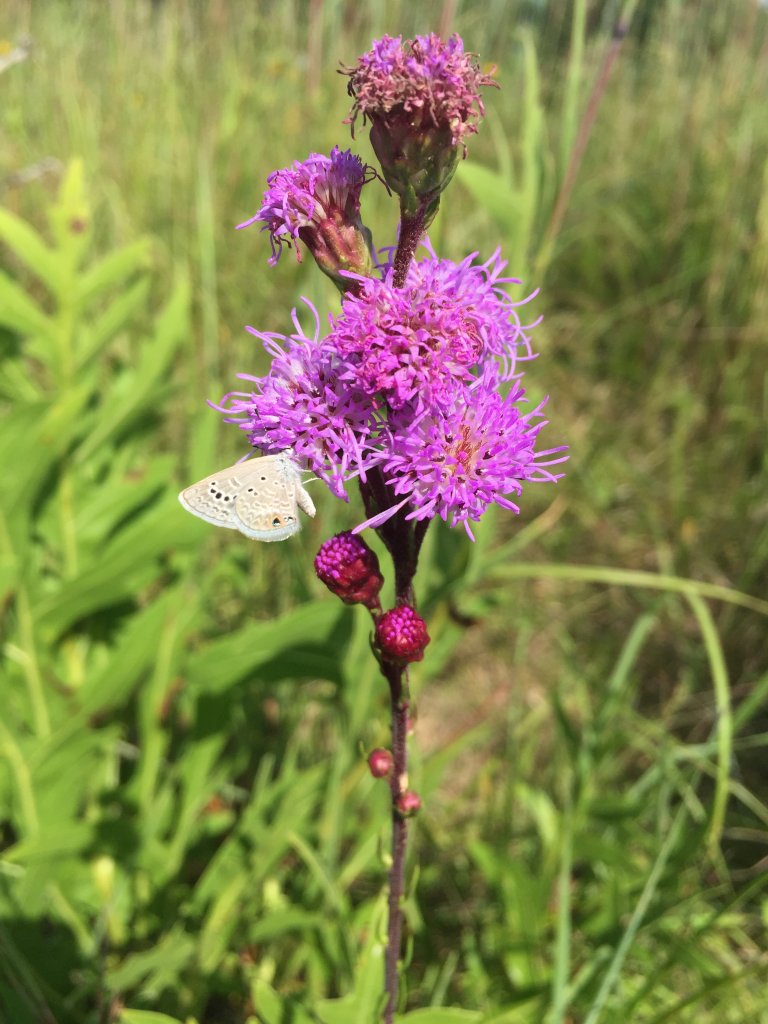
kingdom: Animalia
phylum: Arthropoda
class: Insecta
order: Lepidoptera
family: Lycaenidae
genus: Echinargus
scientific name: Echinargus isola
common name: Reakirt's Blue
